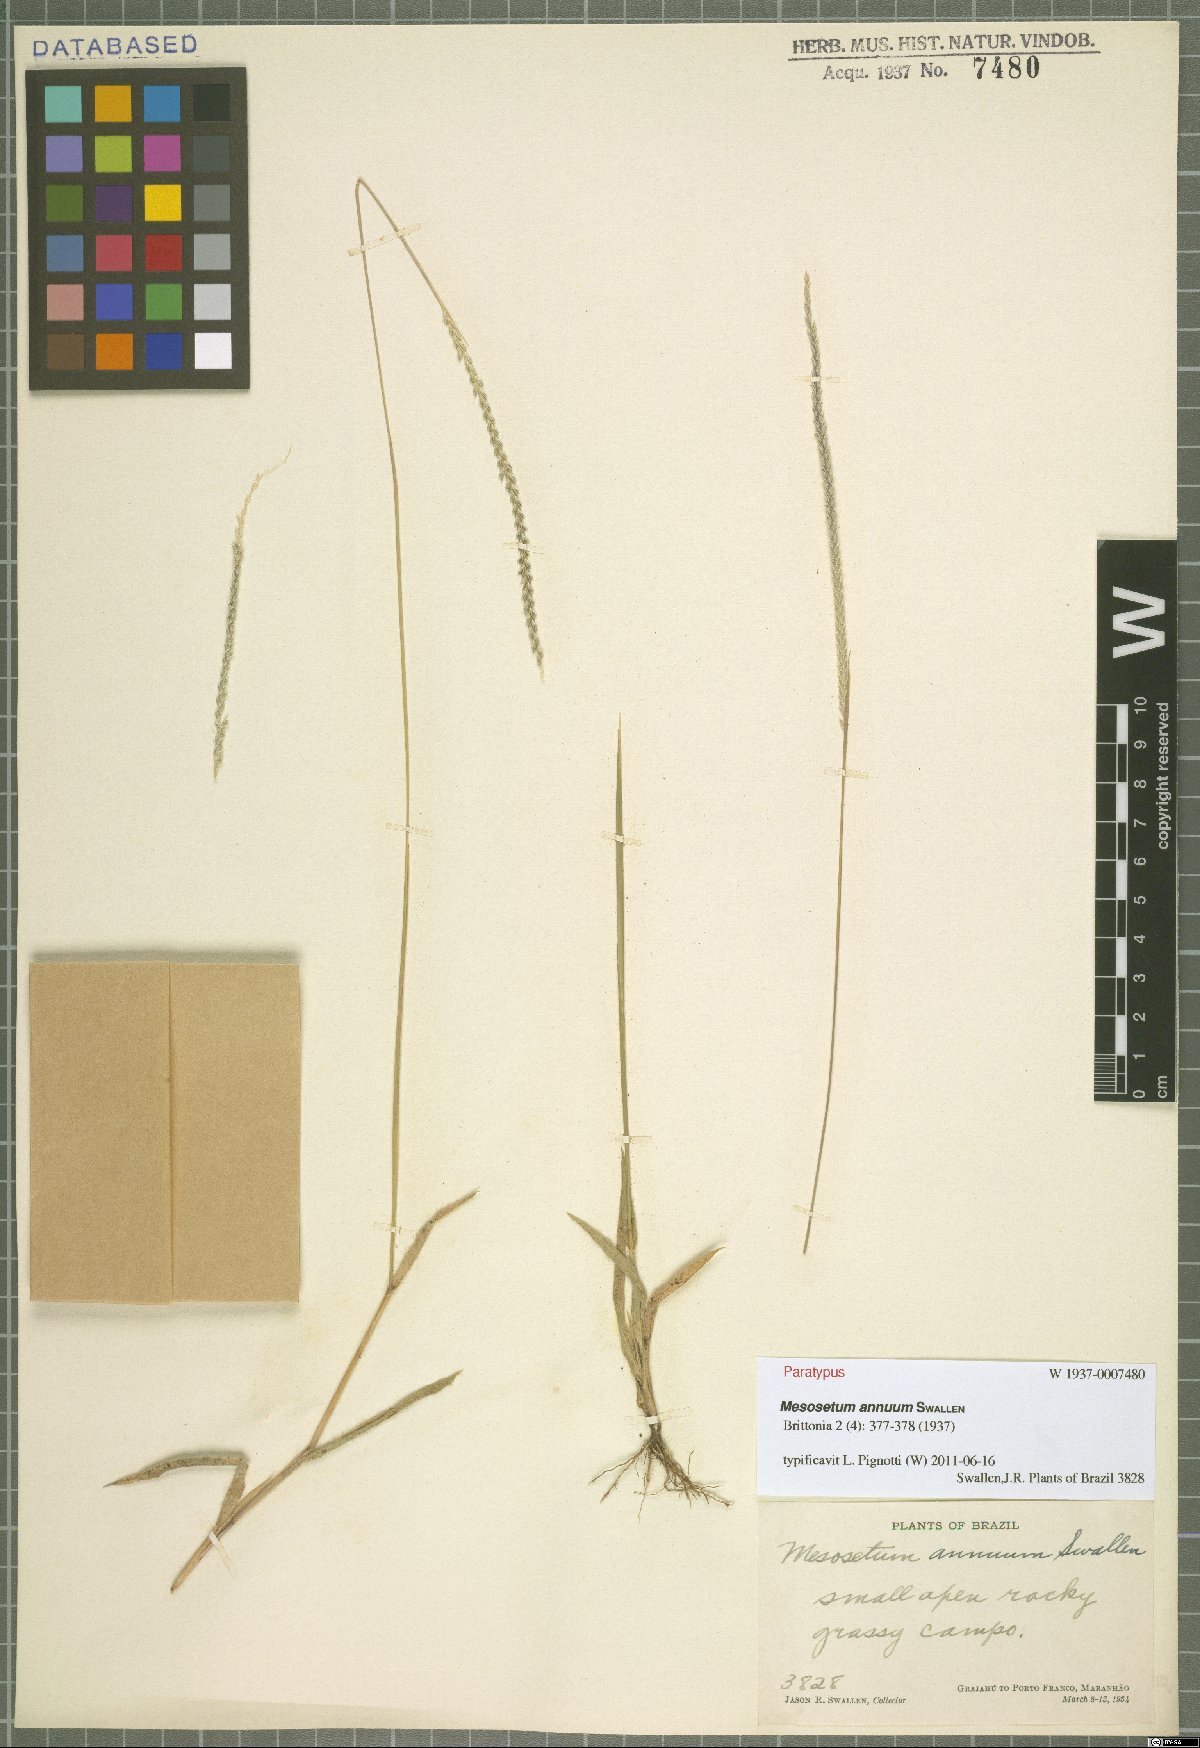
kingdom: Plantae
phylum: Tracheophyta
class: Liliopsida
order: Poales
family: Poaceae
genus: Mesosetum
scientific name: Mesosetum annuum
